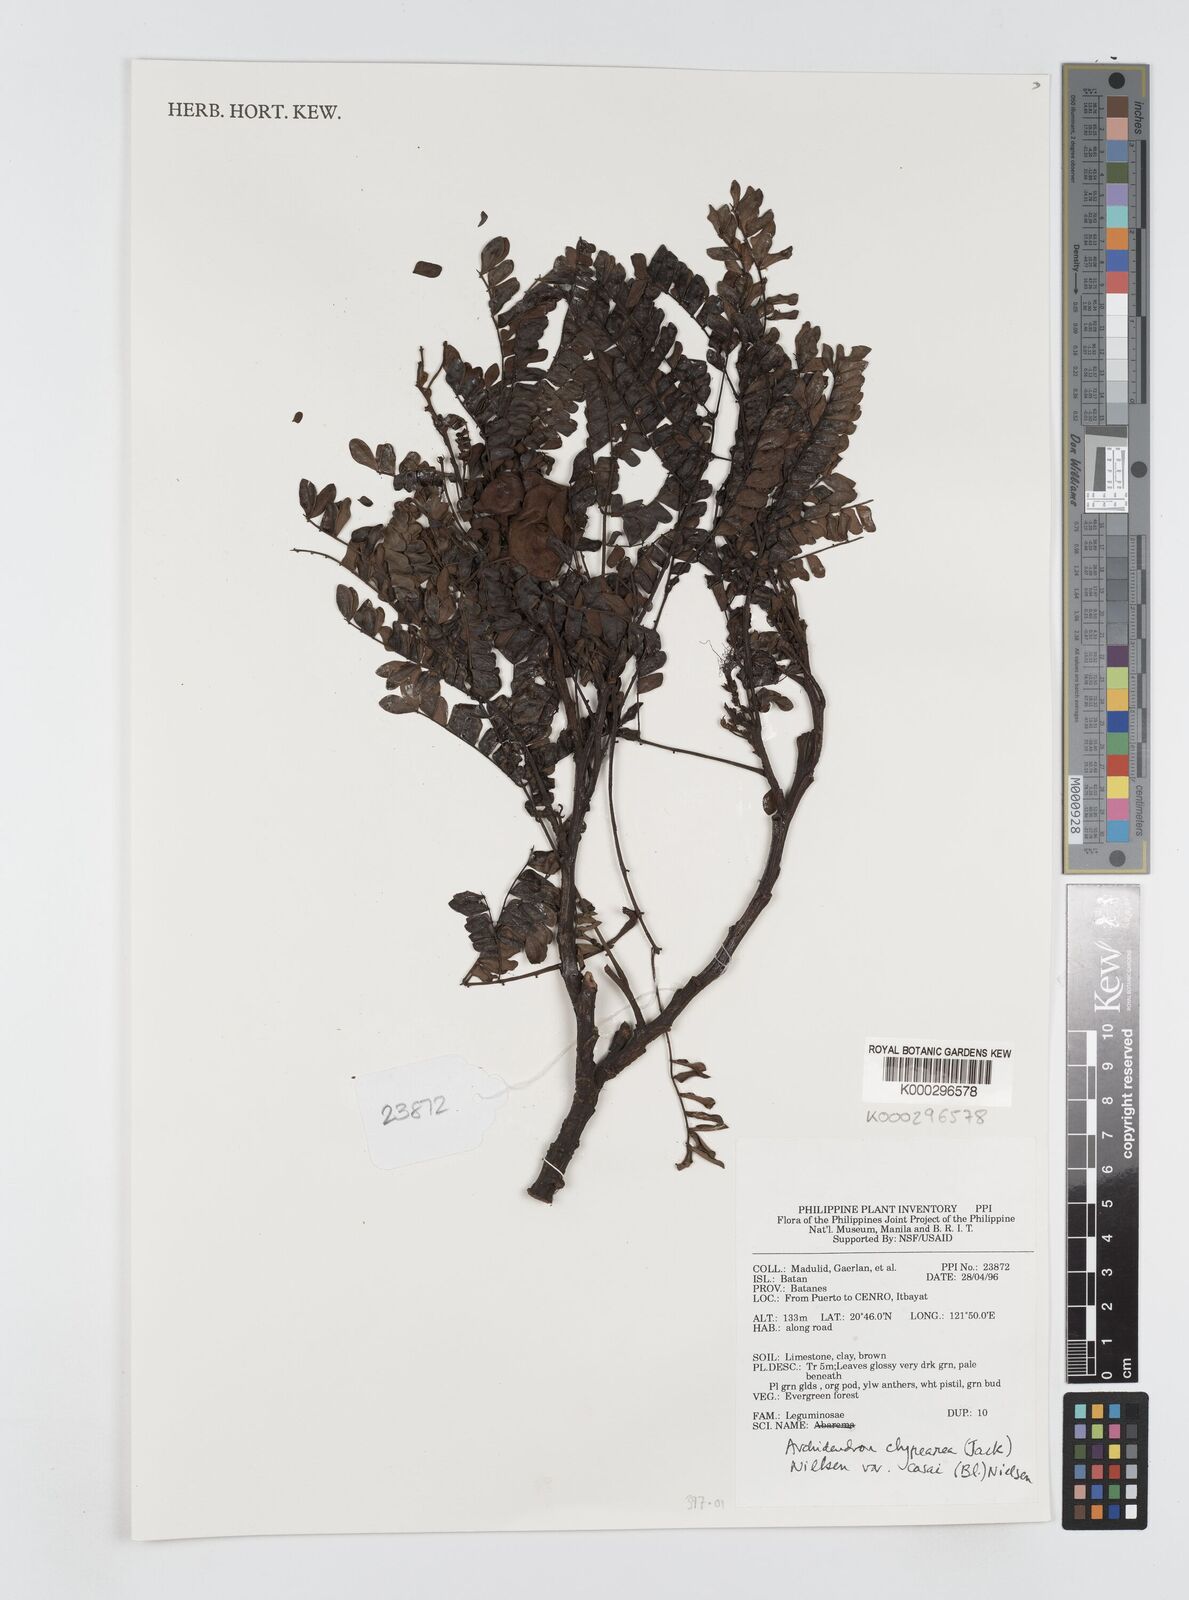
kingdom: Plantae
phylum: Tracheophyta
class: Magnoliopsida
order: Fabales
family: Fabaceae
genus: Archidendron
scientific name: Archidendron clypearia
